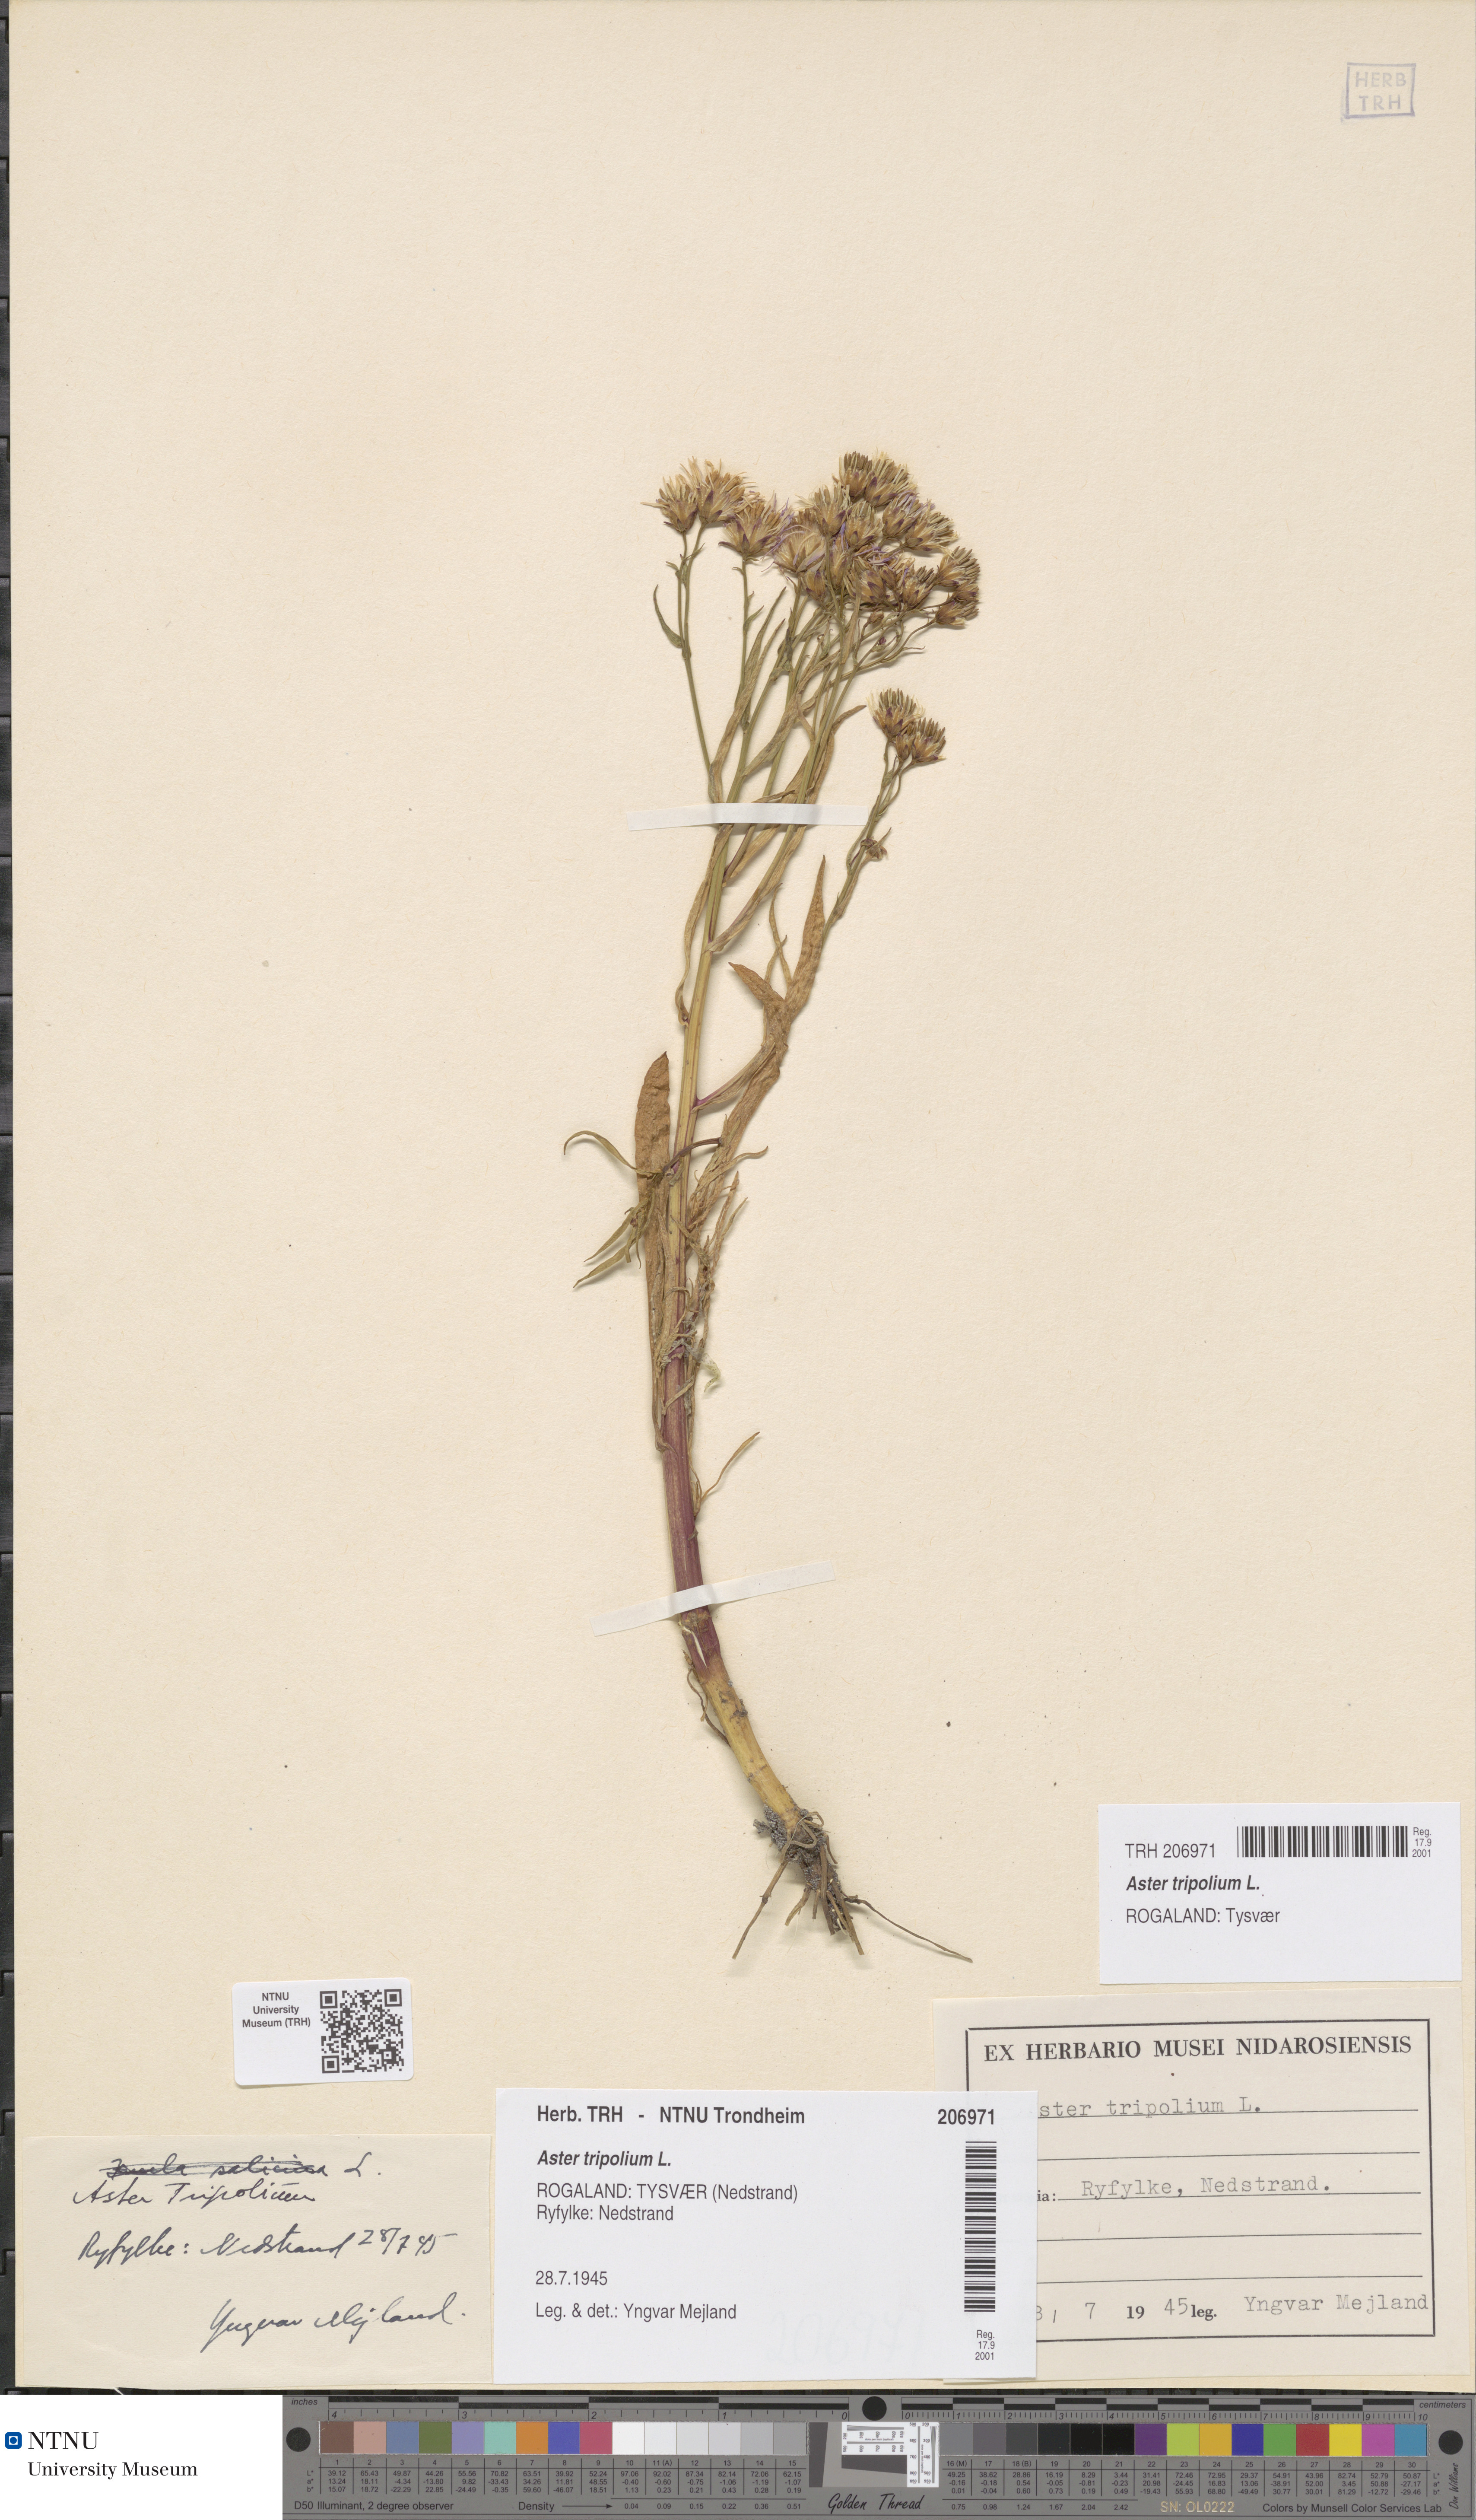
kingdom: Plantae
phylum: Tracheophyta
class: Magnoliopsida
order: Asterales
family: Asteraceae
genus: Tripolium
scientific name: Tripolium pannonicum
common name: Sea aster
